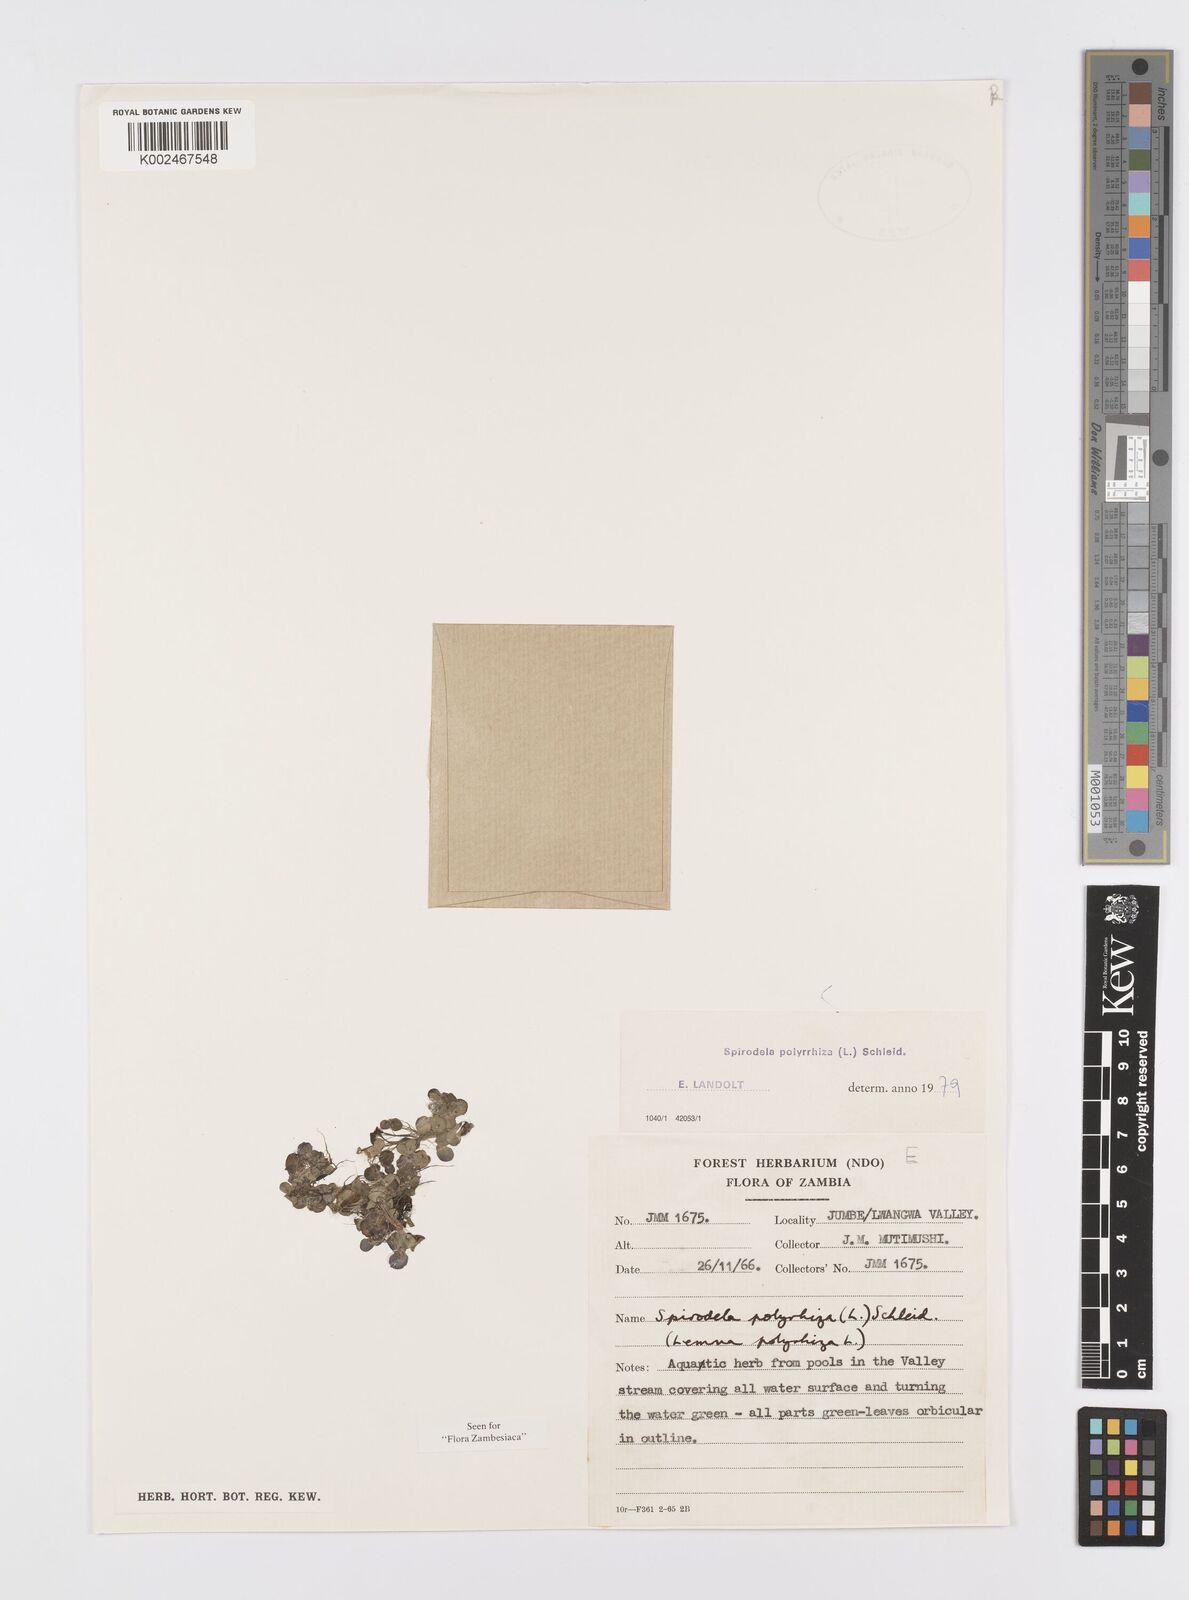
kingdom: Plantae
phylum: Tracheophyta
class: Liliopsida
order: Alismatales
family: Araceae
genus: Spirodela
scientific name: Spirodela polyrhiza
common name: Great duckweed
